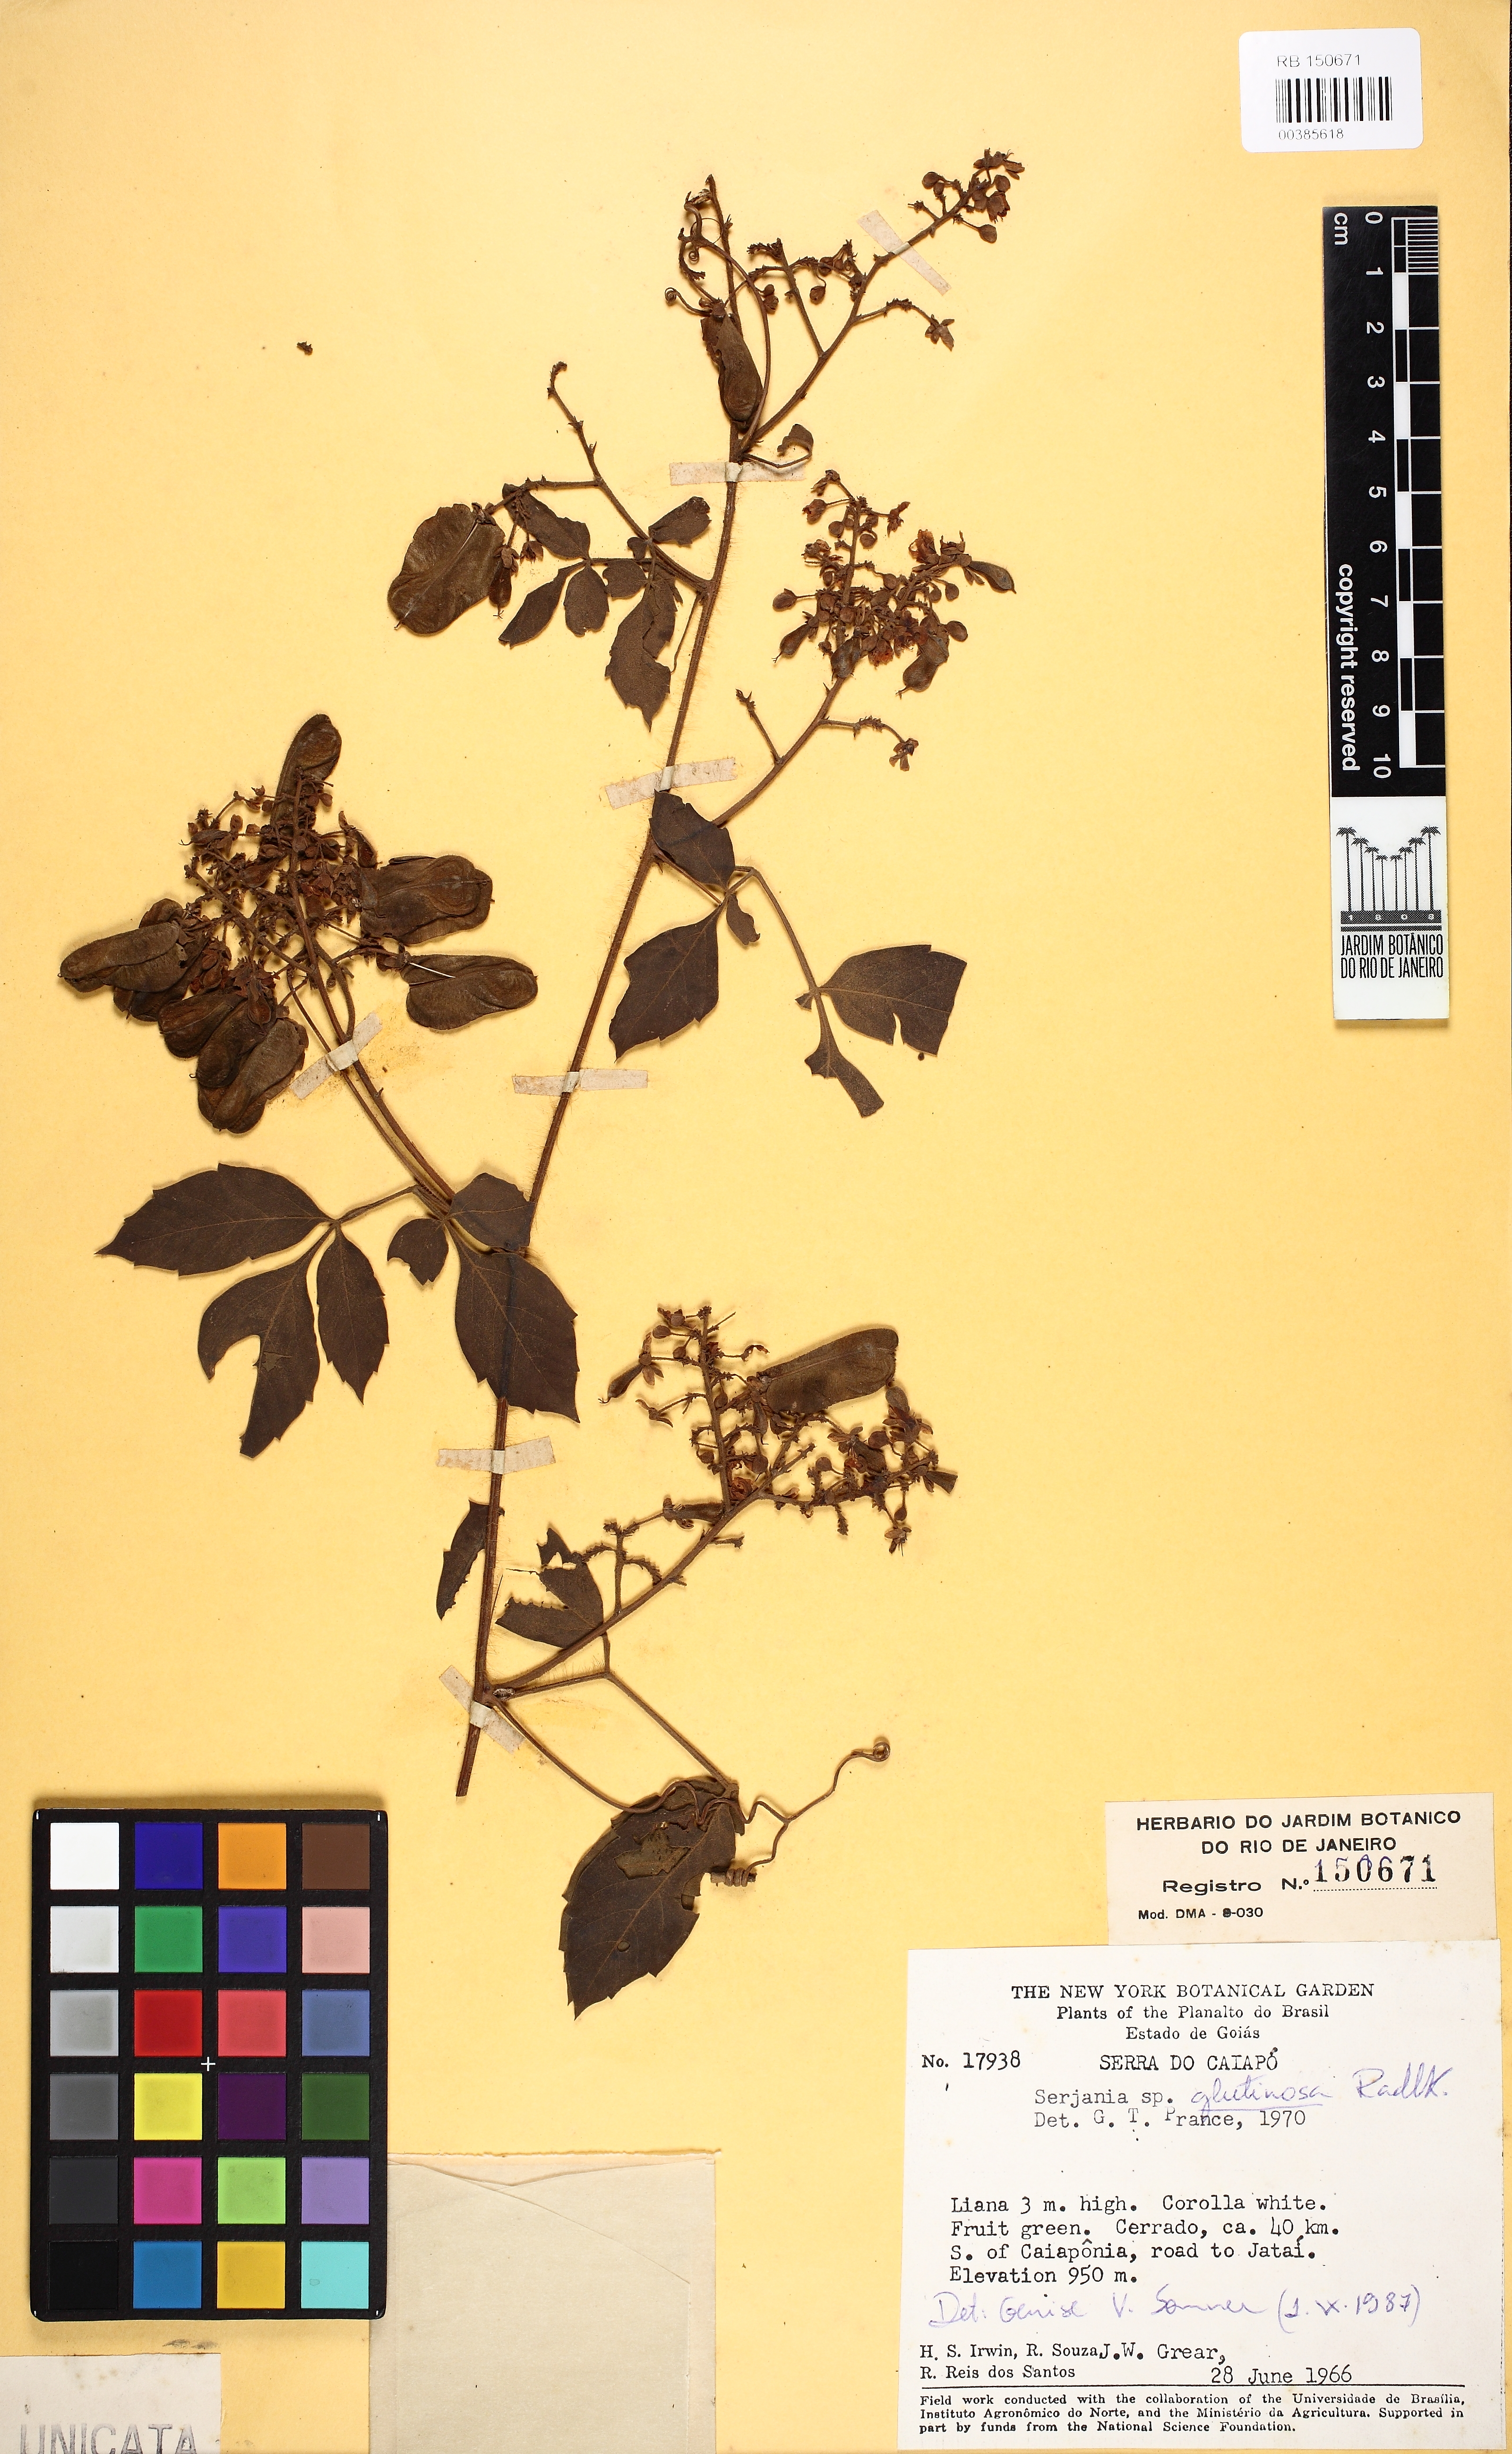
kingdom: Plantae
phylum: Tracheophyta
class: Magnoliopsida
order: Sapindales
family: Sapindaceae
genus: Serjania
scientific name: Serjania glutinosa
